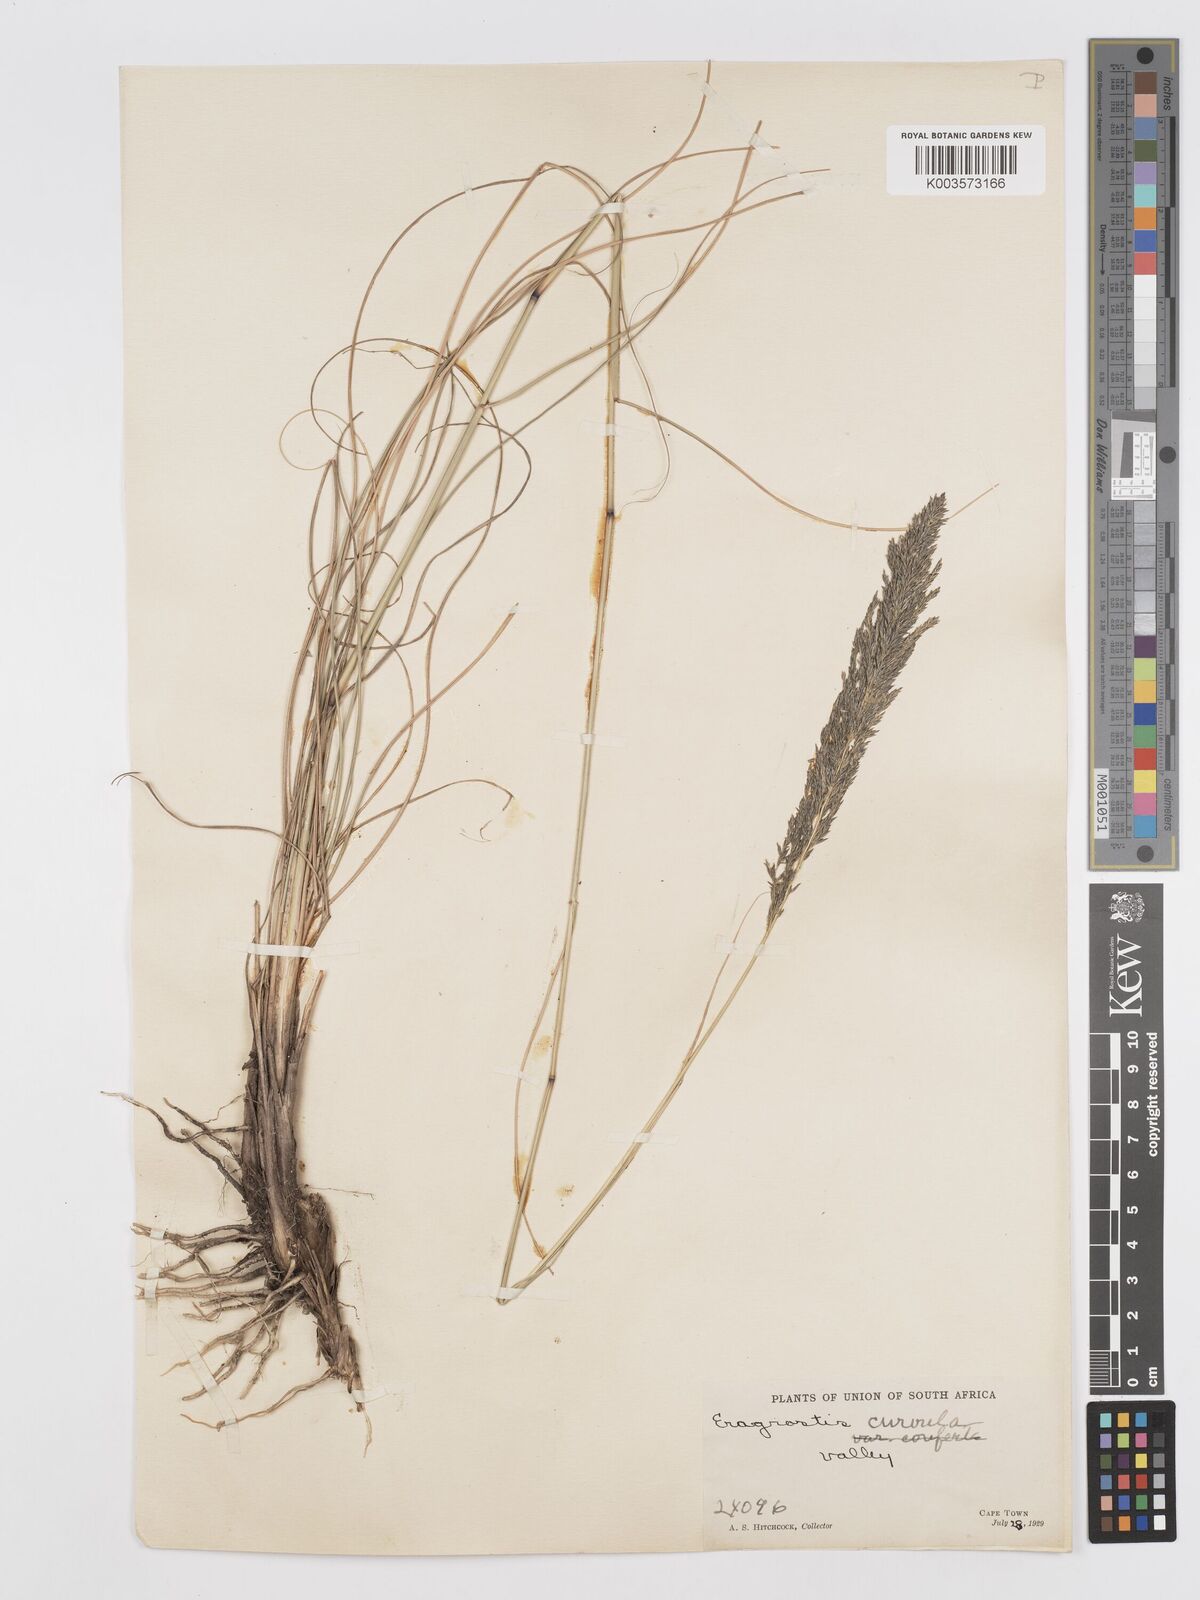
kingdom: Plantae
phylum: Tracheophyta
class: Liliopsida
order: Poales
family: Poaceae
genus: Eragrostis
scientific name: Eragrostis curvula
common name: African love-grass
